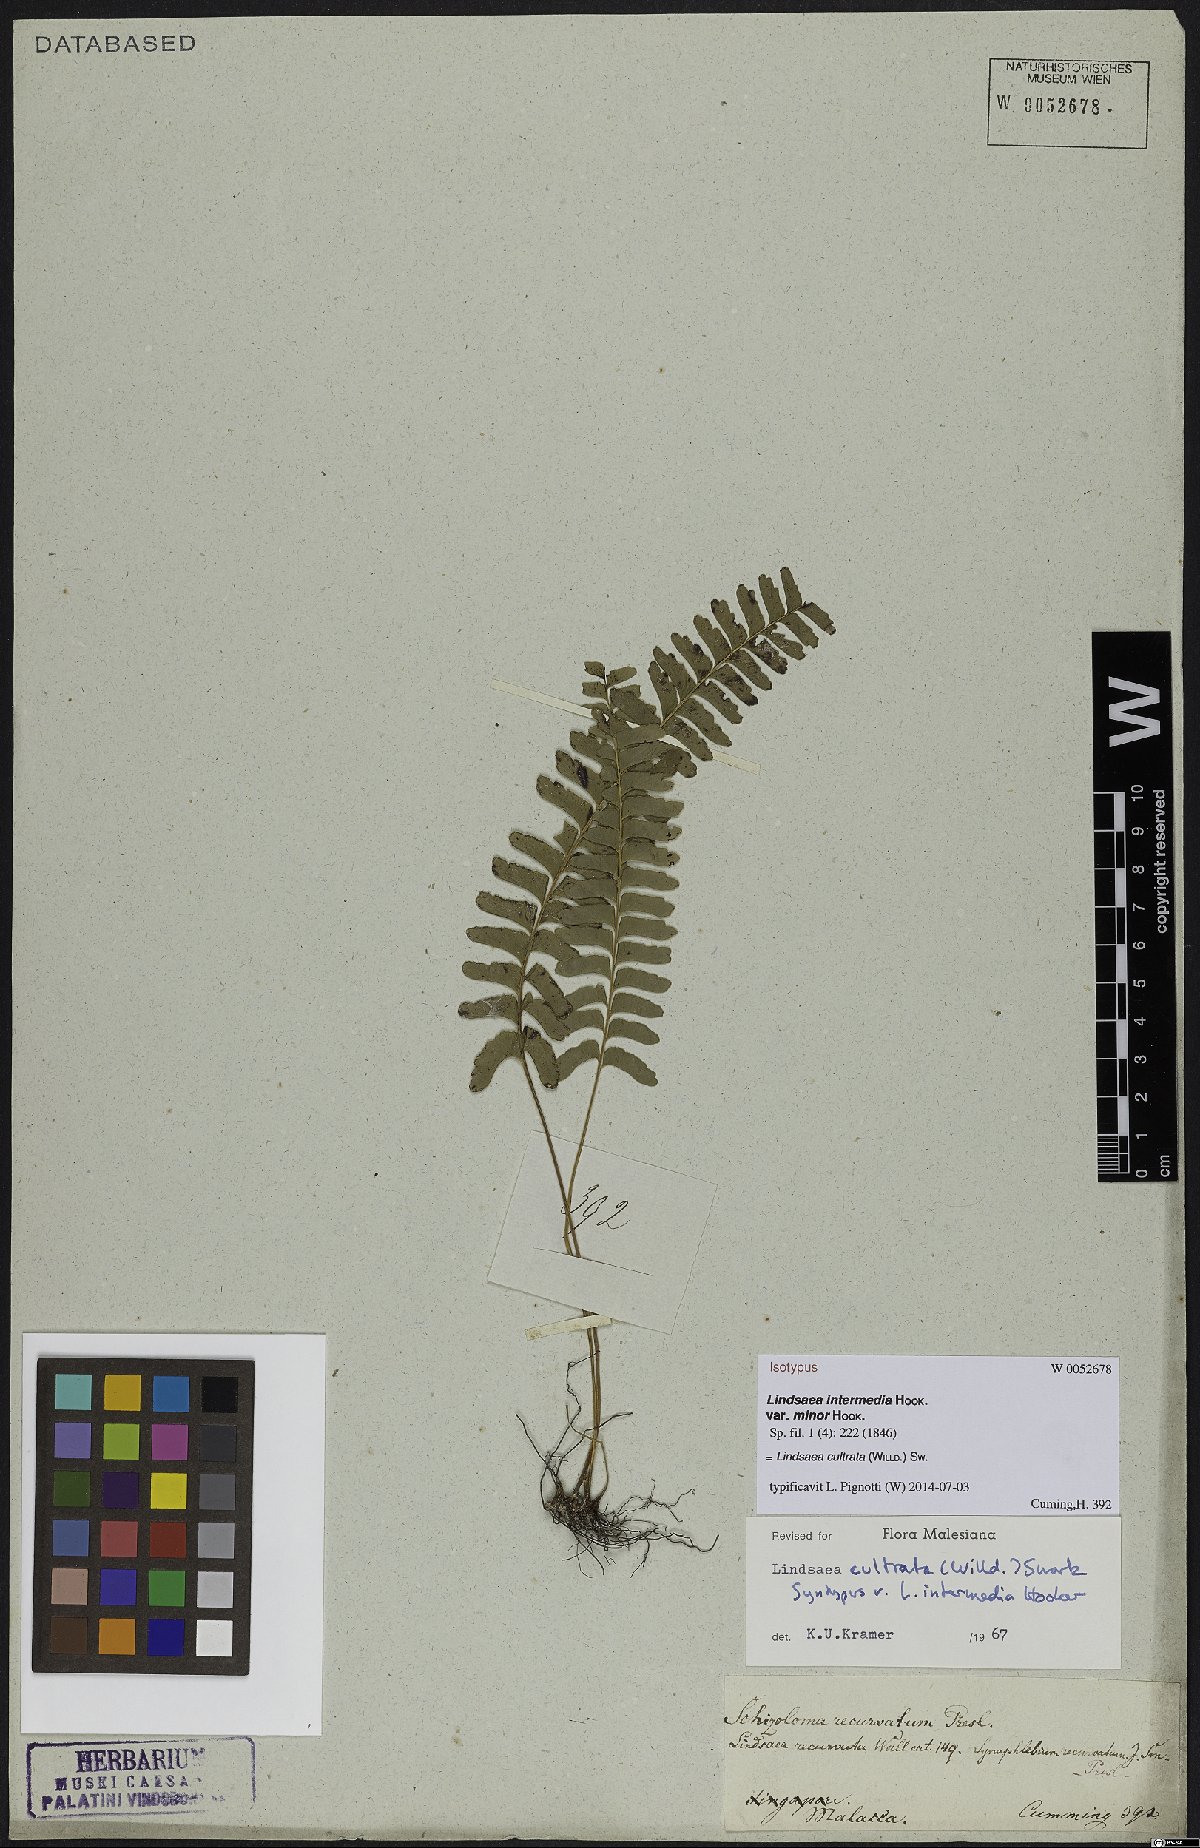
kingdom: Plantae
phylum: Tracheophyta
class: Polypodiopsida
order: Polypodiales
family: Lindsaeaceae
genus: Lindsaea
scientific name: Lindsaea cultrata
